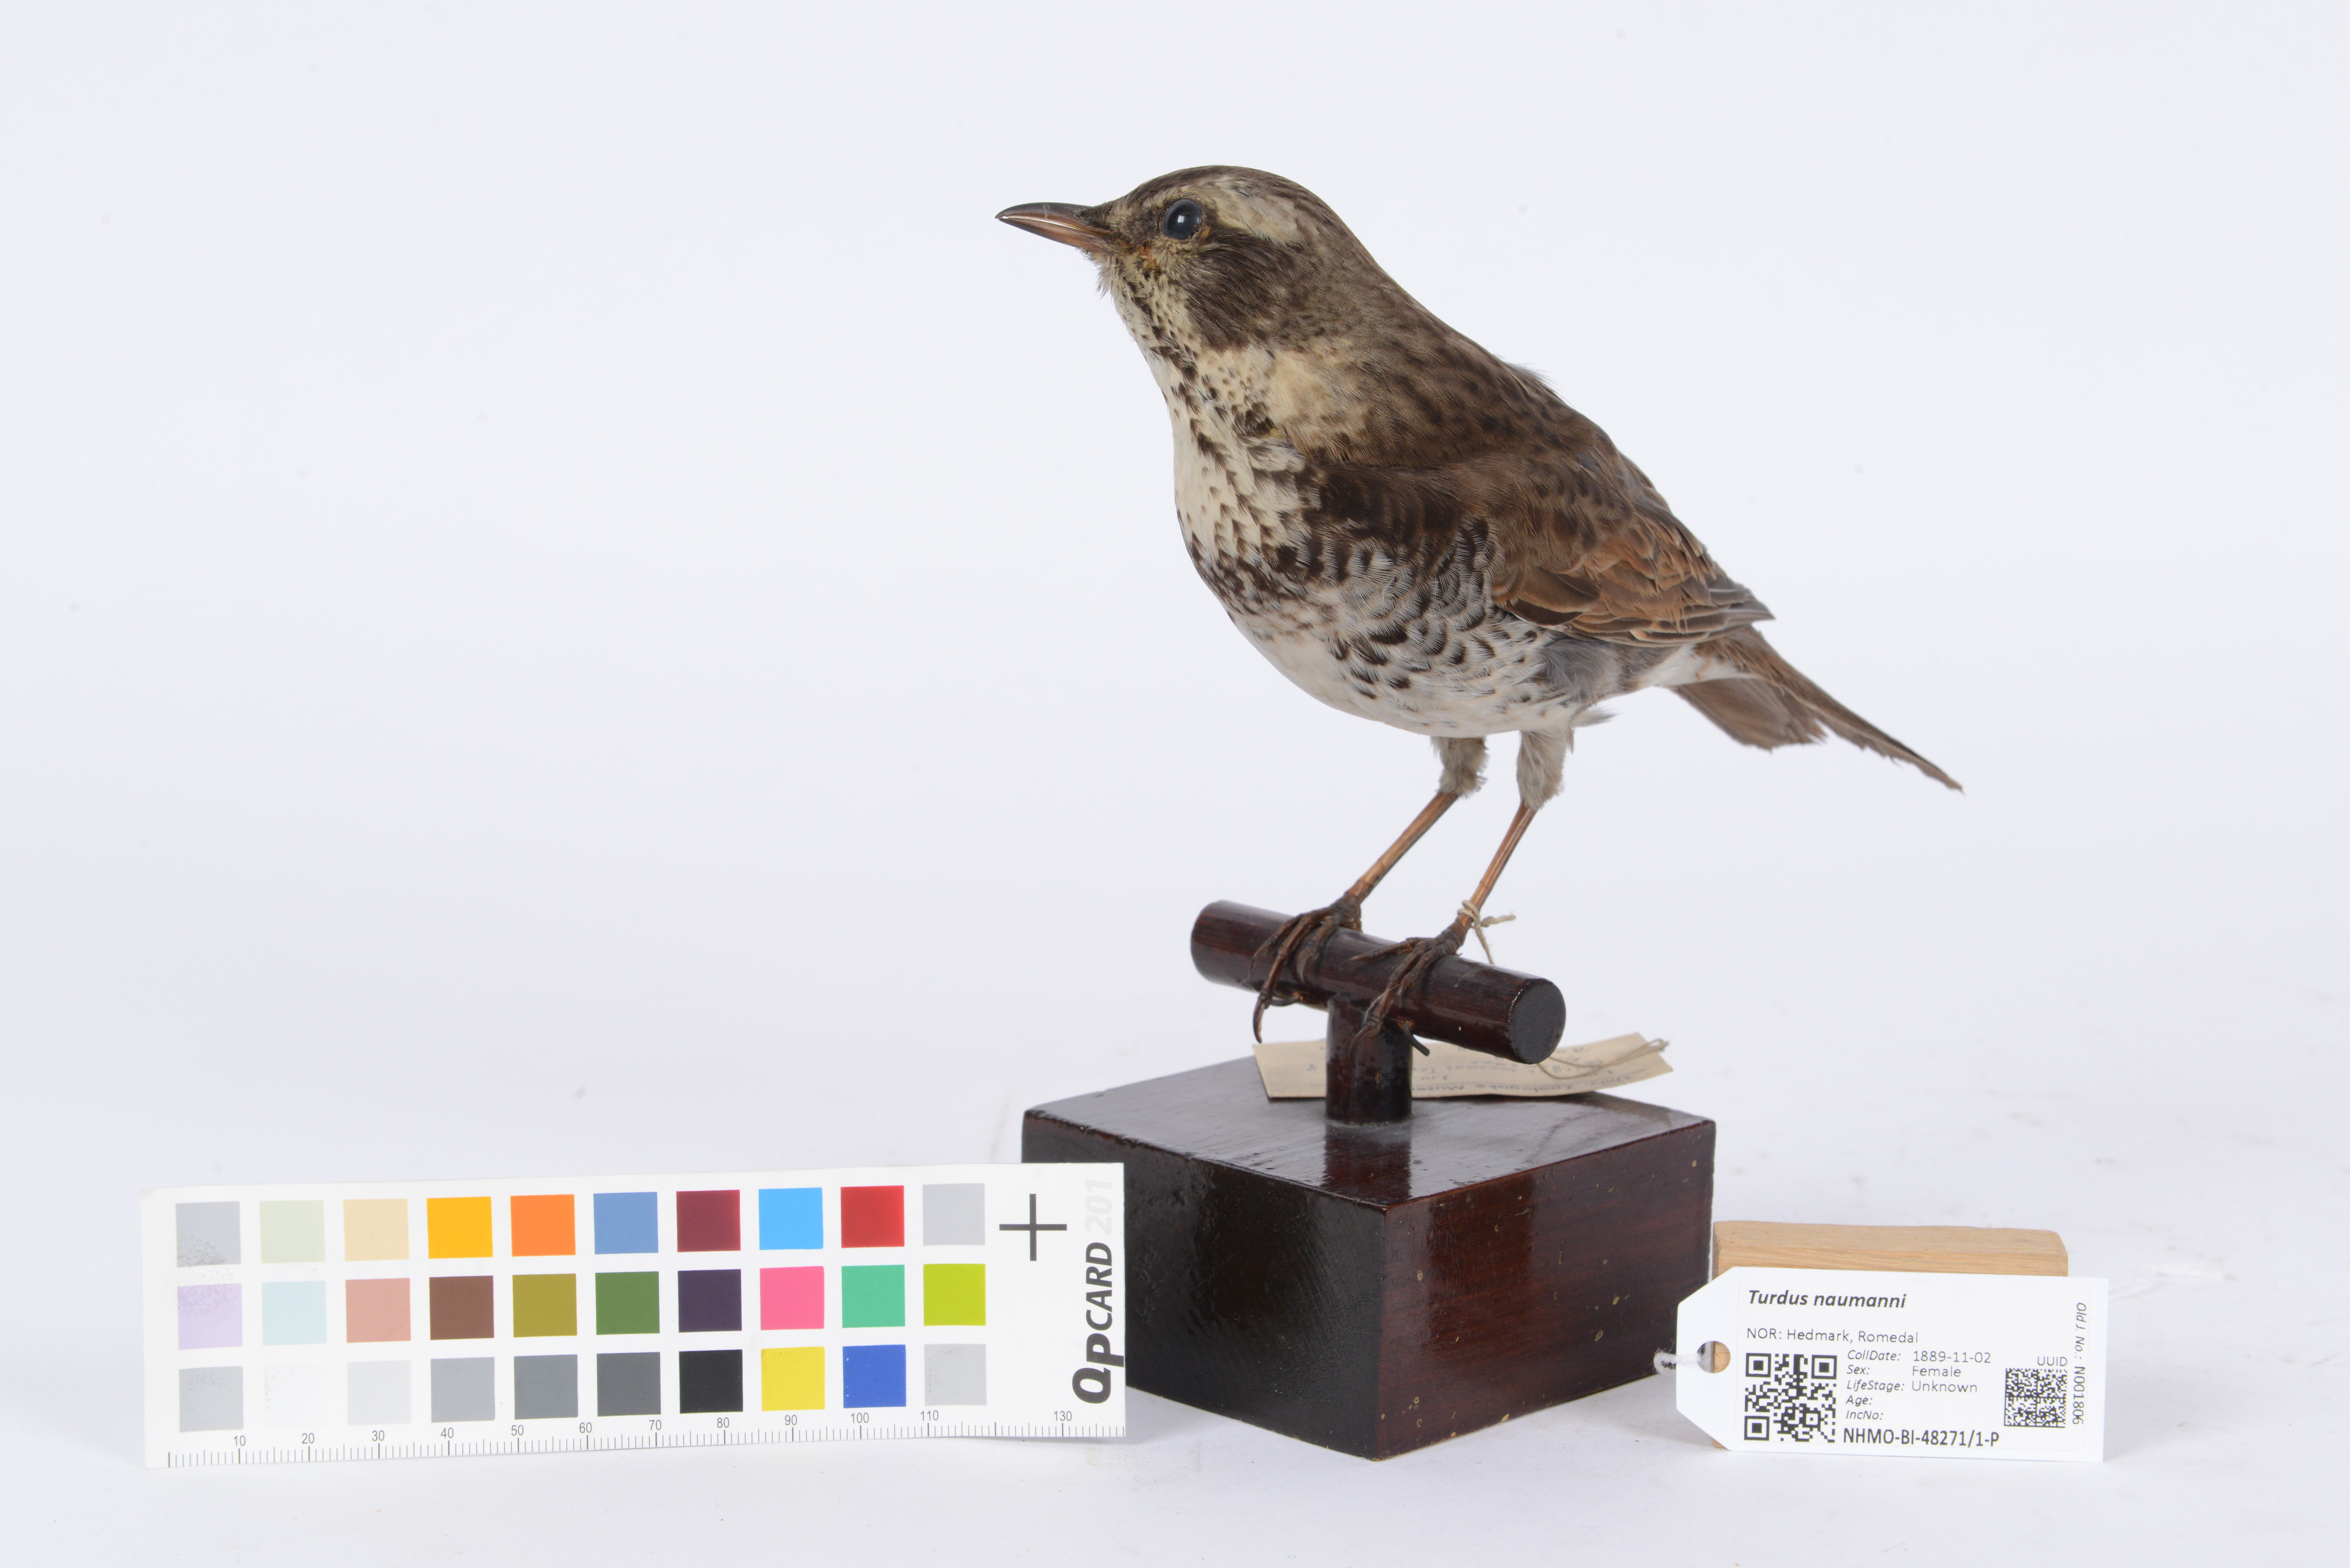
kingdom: Animalia
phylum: Chordata
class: Aves
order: Passeriformes
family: Turdidae
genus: Turdus
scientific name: Turdus naumanni
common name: Naumann's thrush
